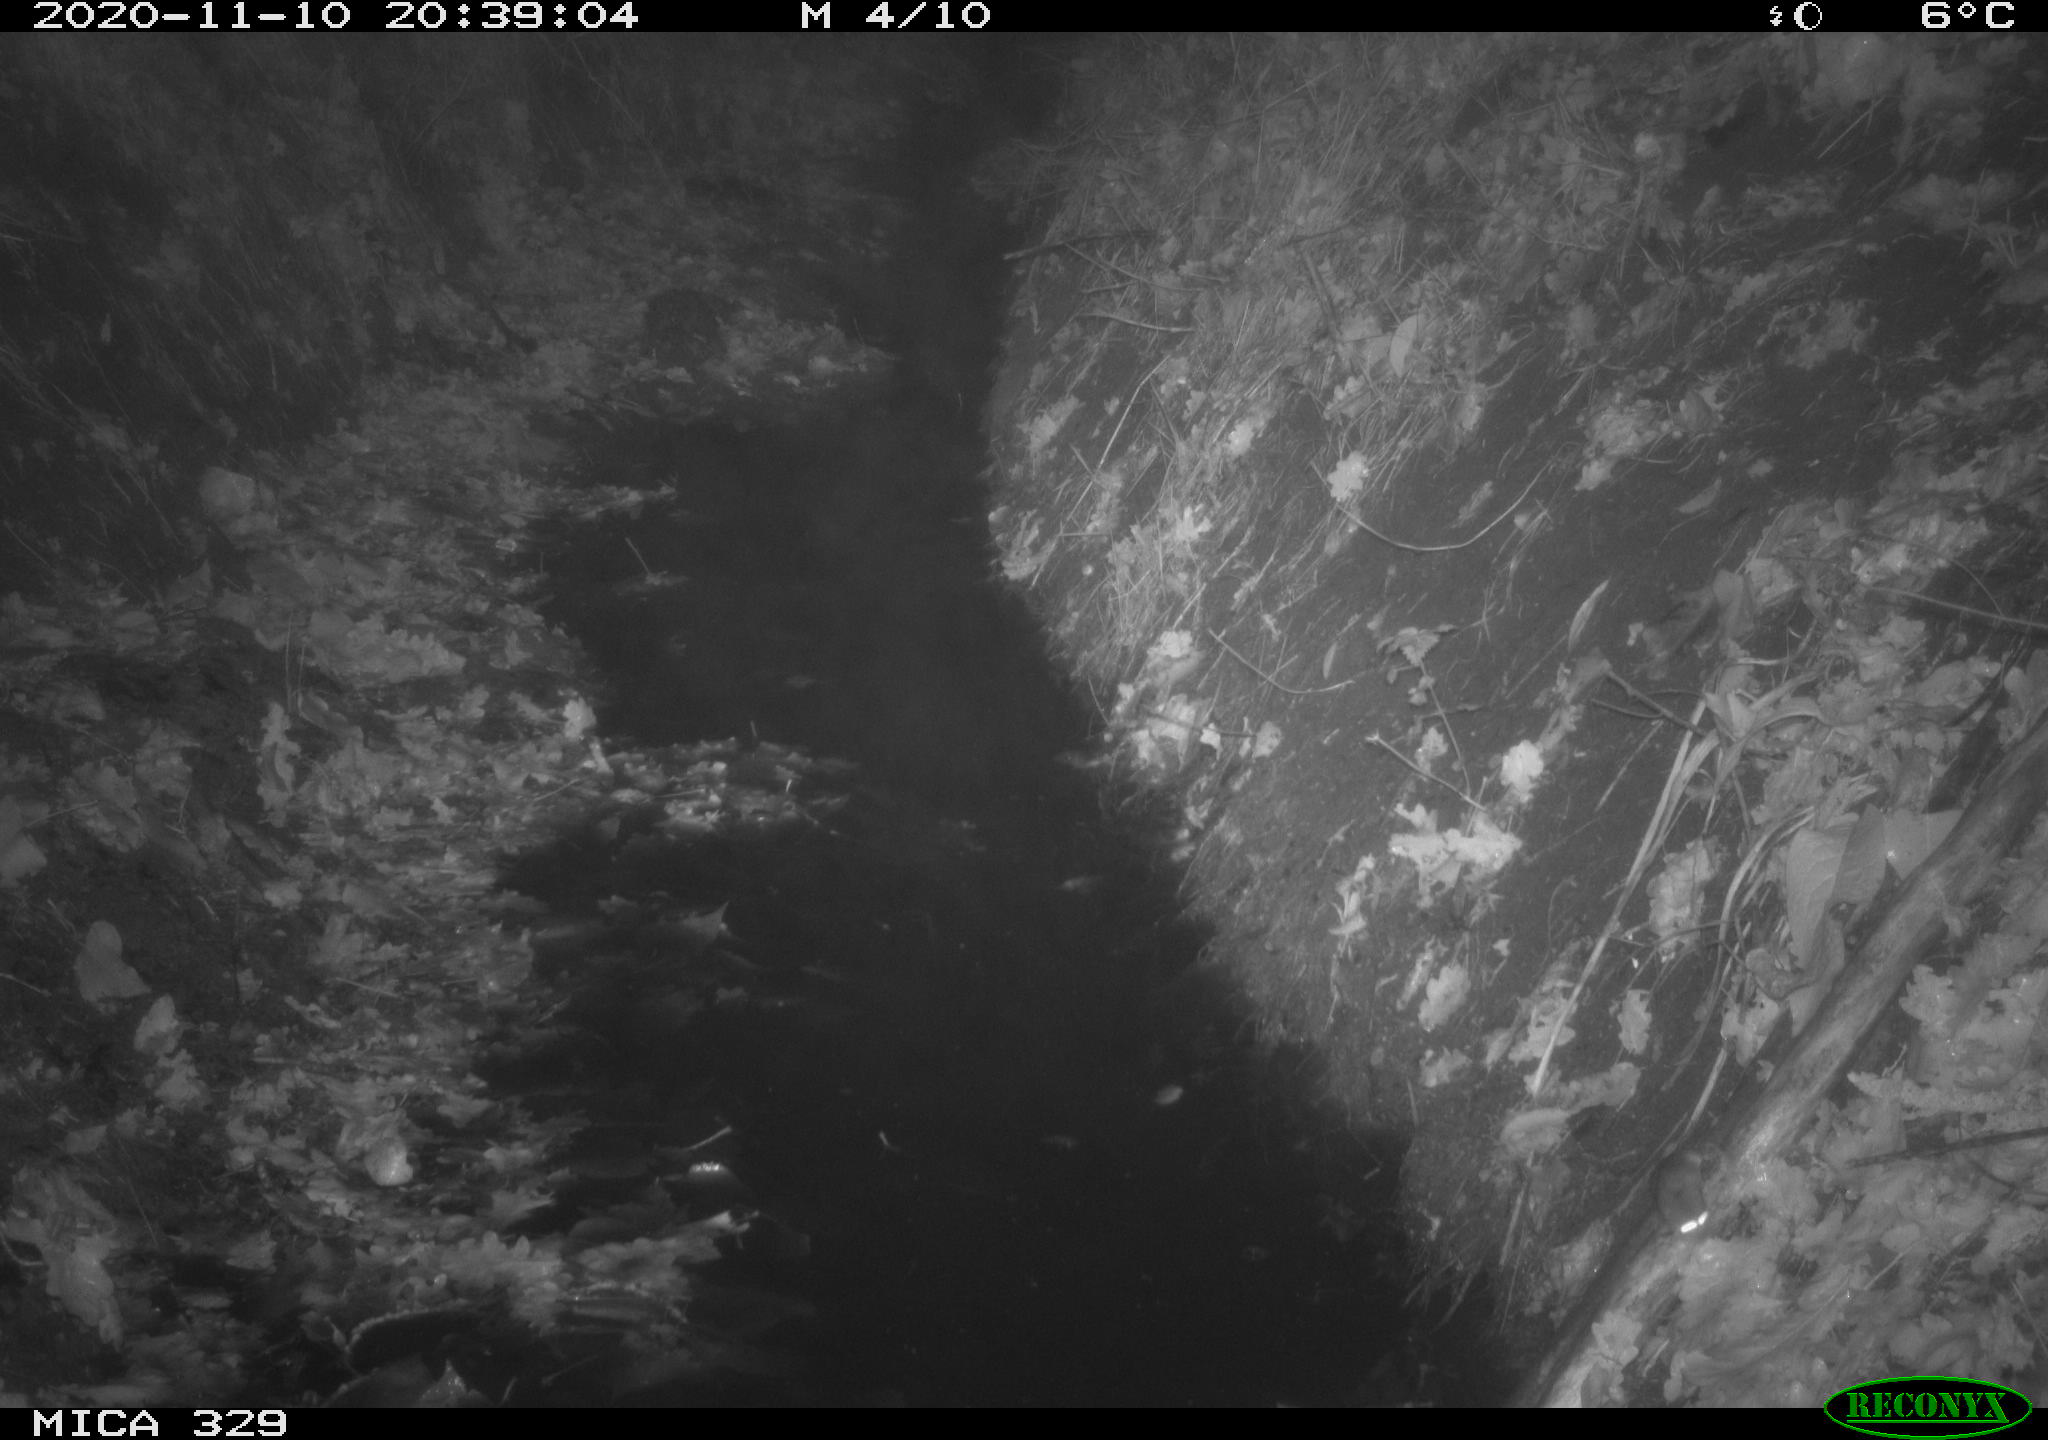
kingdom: Animalia
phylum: Chordata
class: Mammalia
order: Rodentia
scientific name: Rodentia
